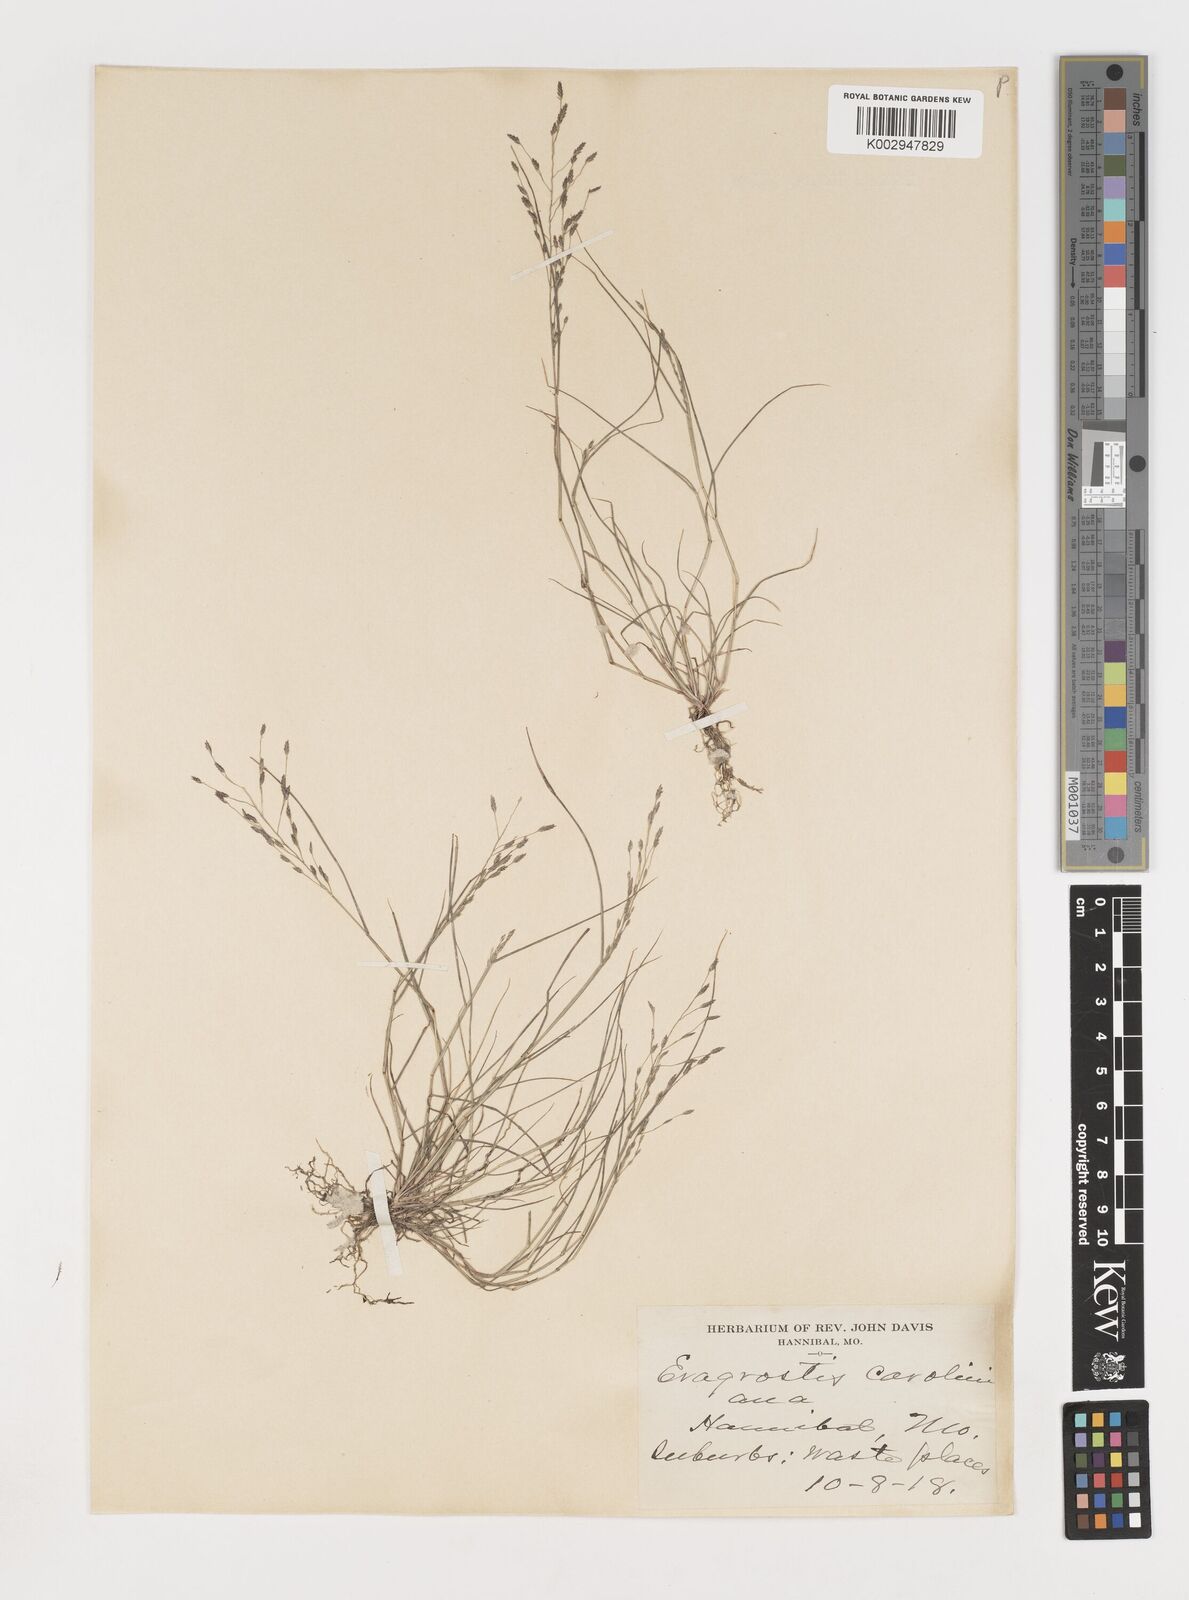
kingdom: Plantae
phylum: Tracheophyta
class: Liliopsida
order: Poales
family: Poaceae
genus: Eragrostis
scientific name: Eragrostis pectinacea
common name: Tufted lovegrass
